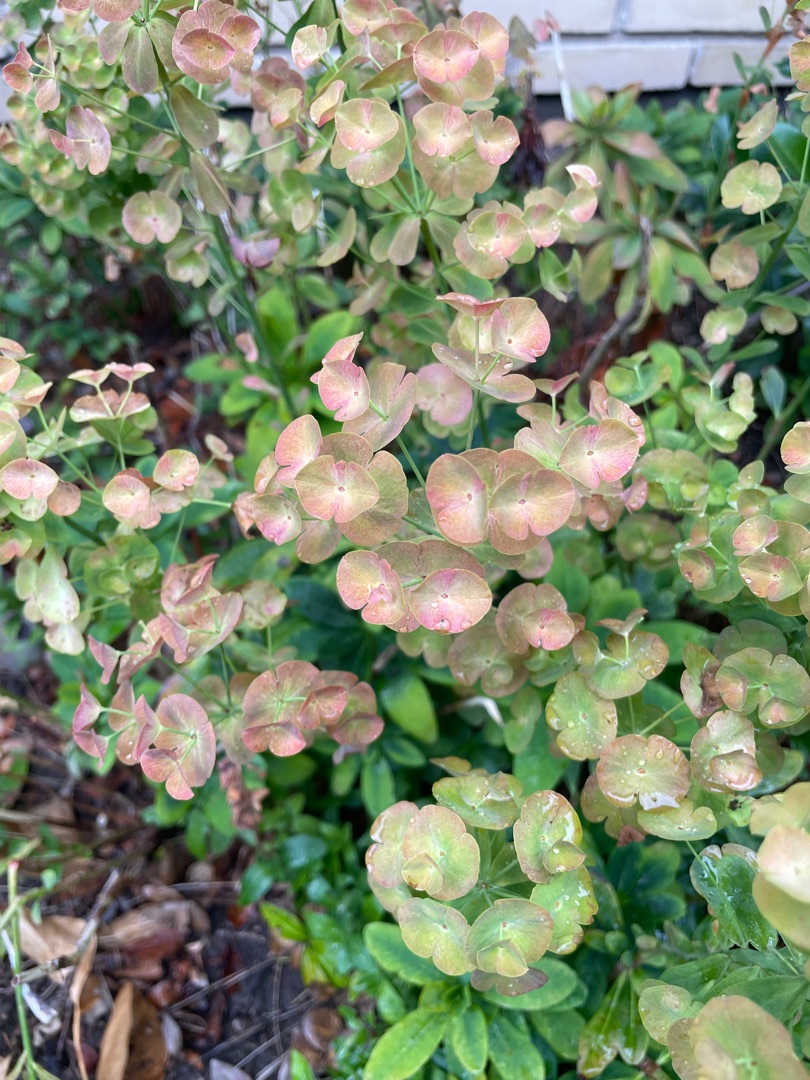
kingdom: Plantae
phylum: Tracheophyta
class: Magnoliopsida
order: Malpighiales
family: Euphorbiaceae
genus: Euphorbia
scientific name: Euphorbia amygdaloides
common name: Mandel-vortemælk
